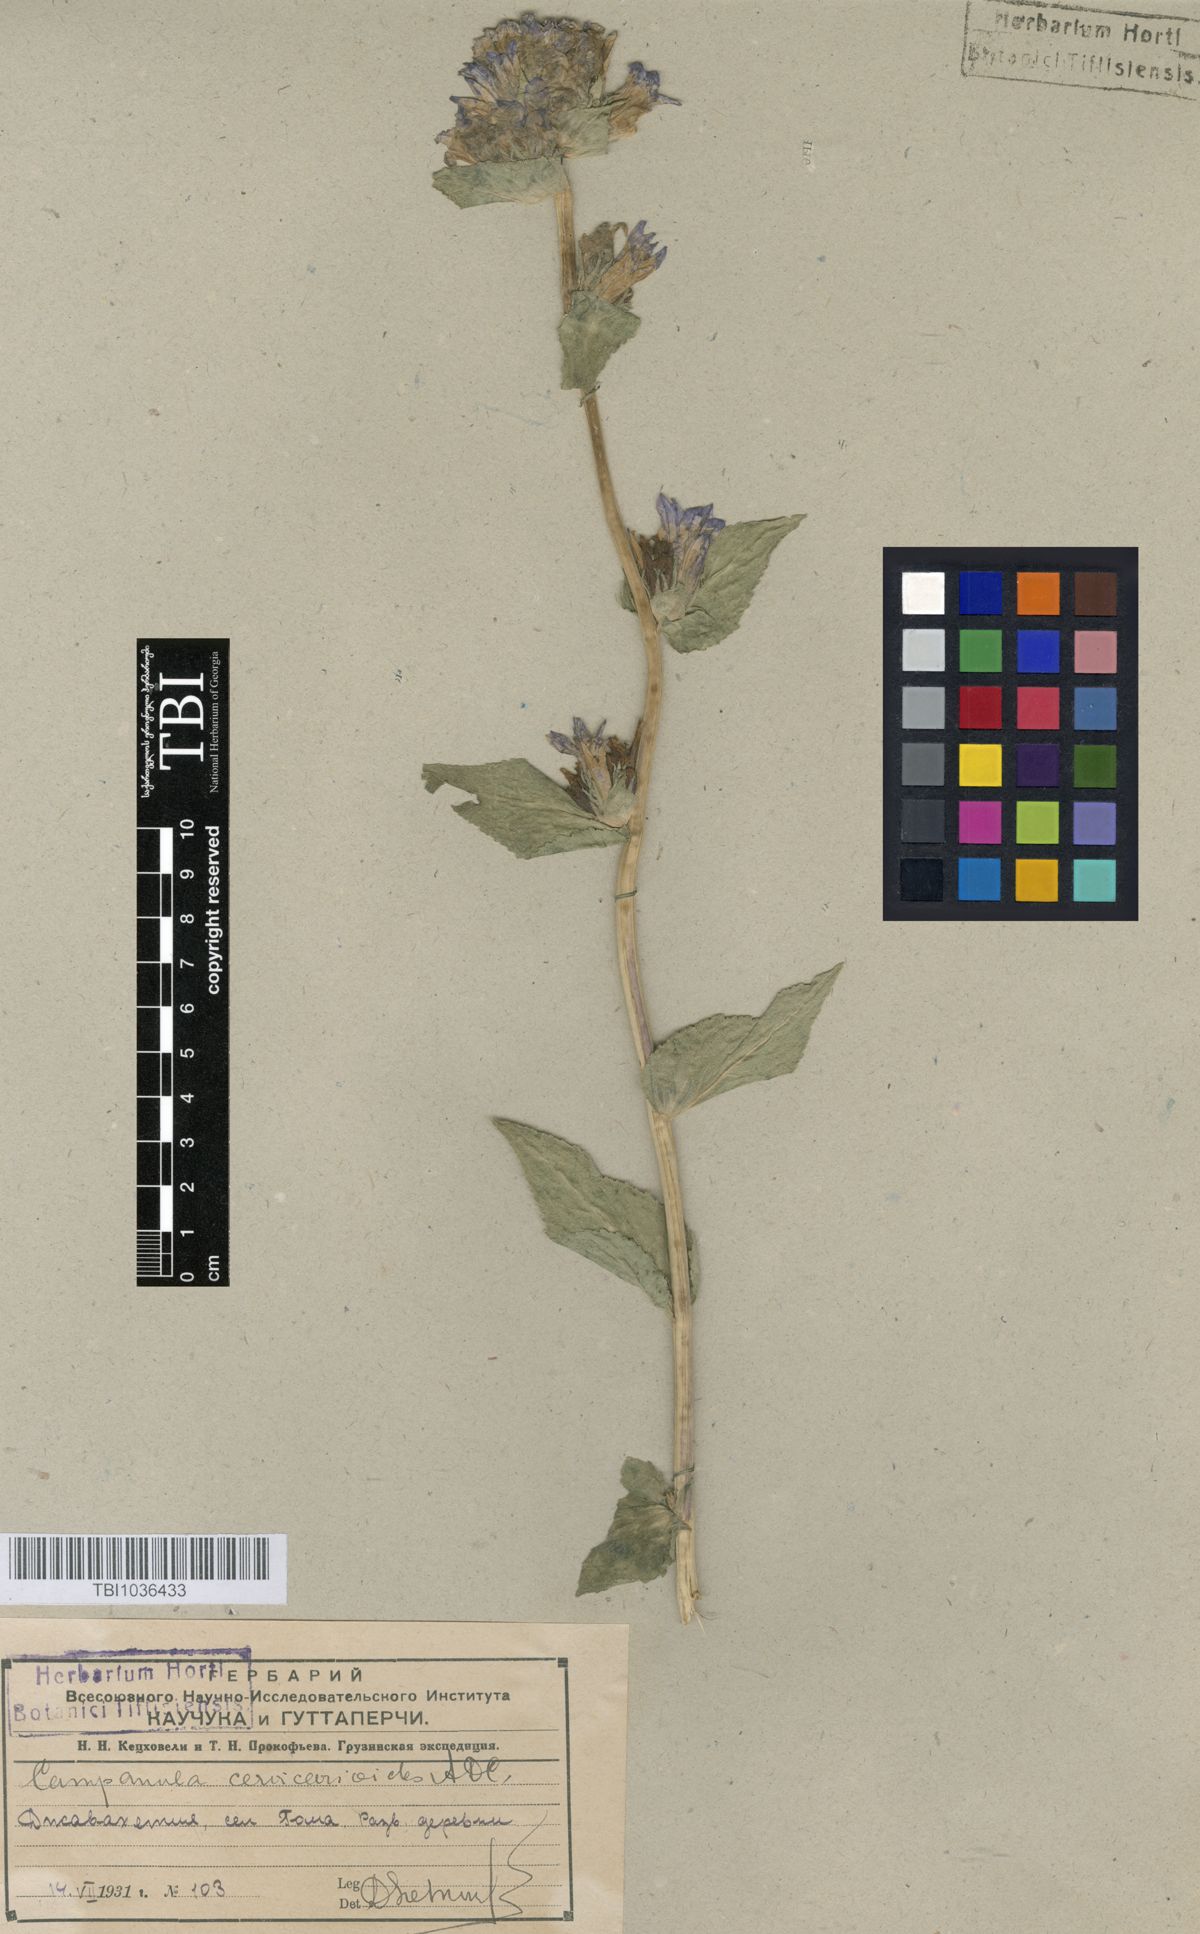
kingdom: Plantae
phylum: Tracheophyta
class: Magnoliopsida
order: Asterales
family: Campanulaceae
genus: Campanula
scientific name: Campanula glomerata
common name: Clustered bellflower
